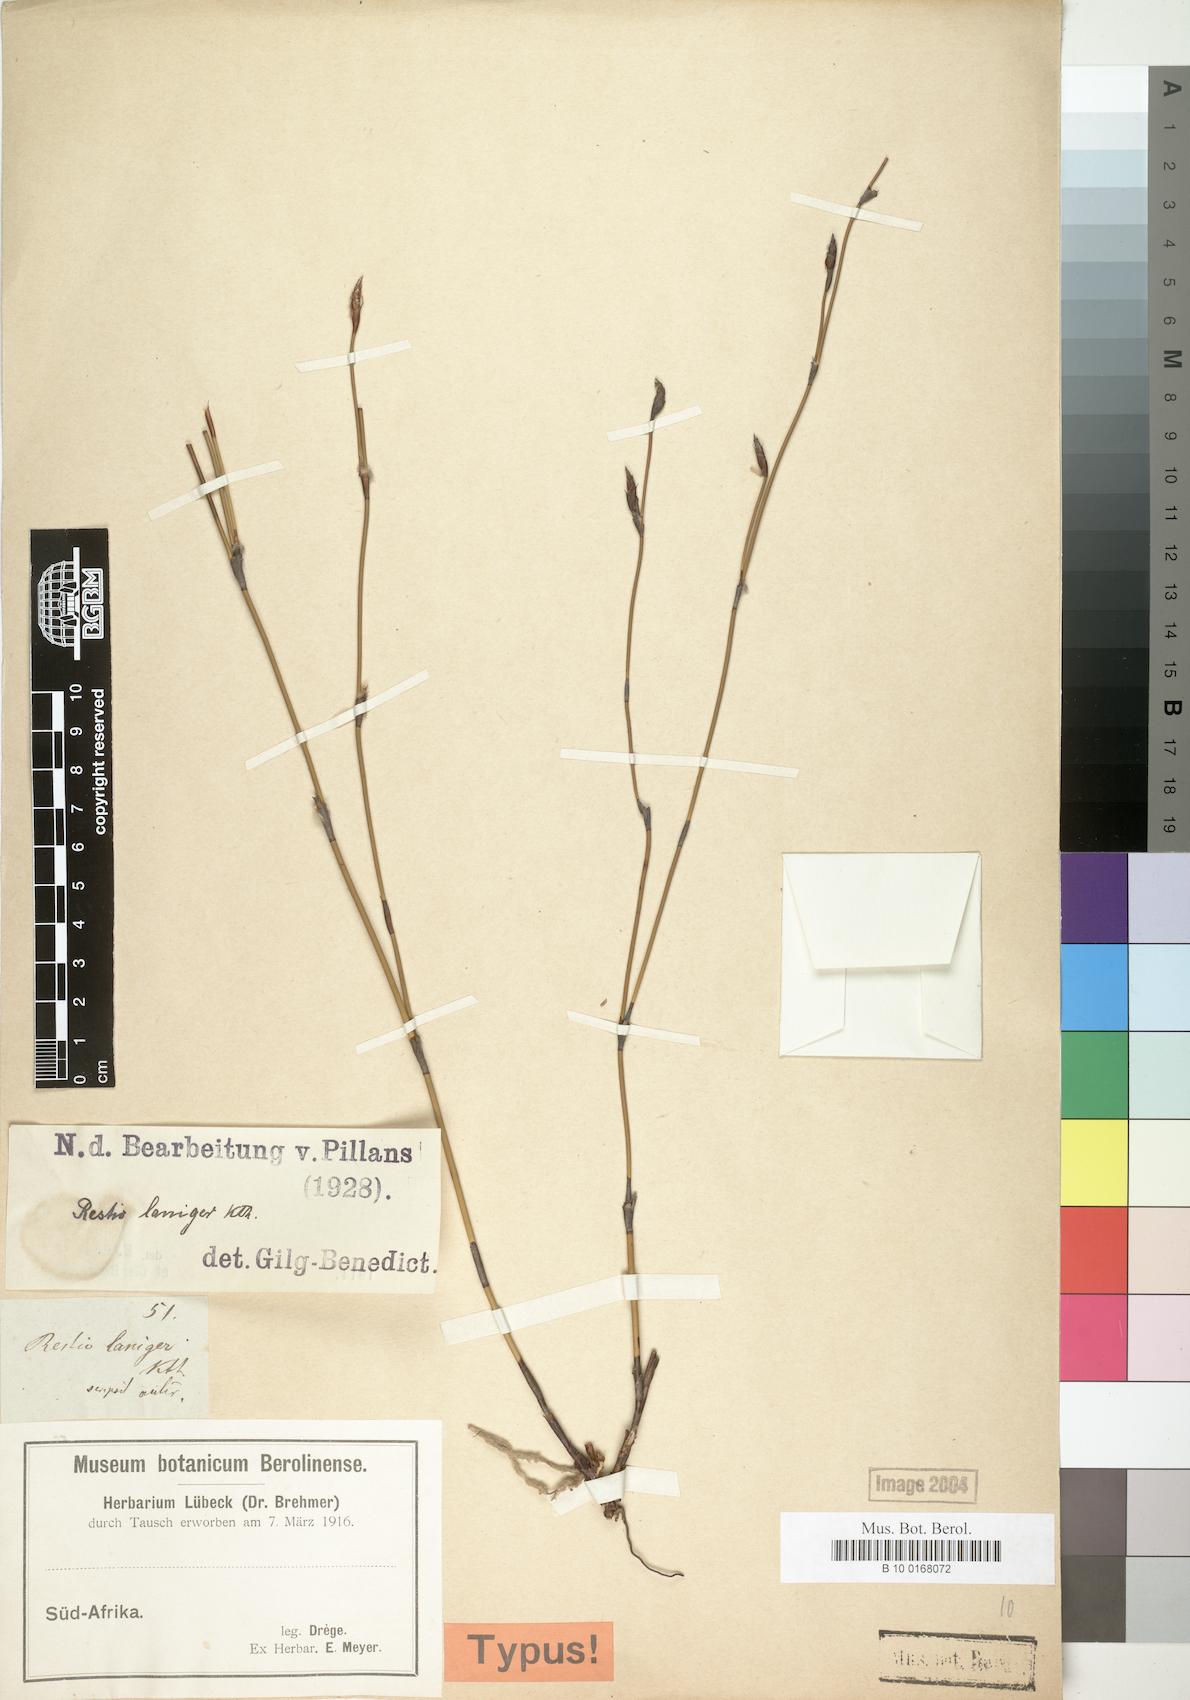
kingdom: Plantae
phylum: Tracheophyta
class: Liliopsida
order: Poales
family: Restionaceae
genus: Restio
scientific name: Restio laniger
